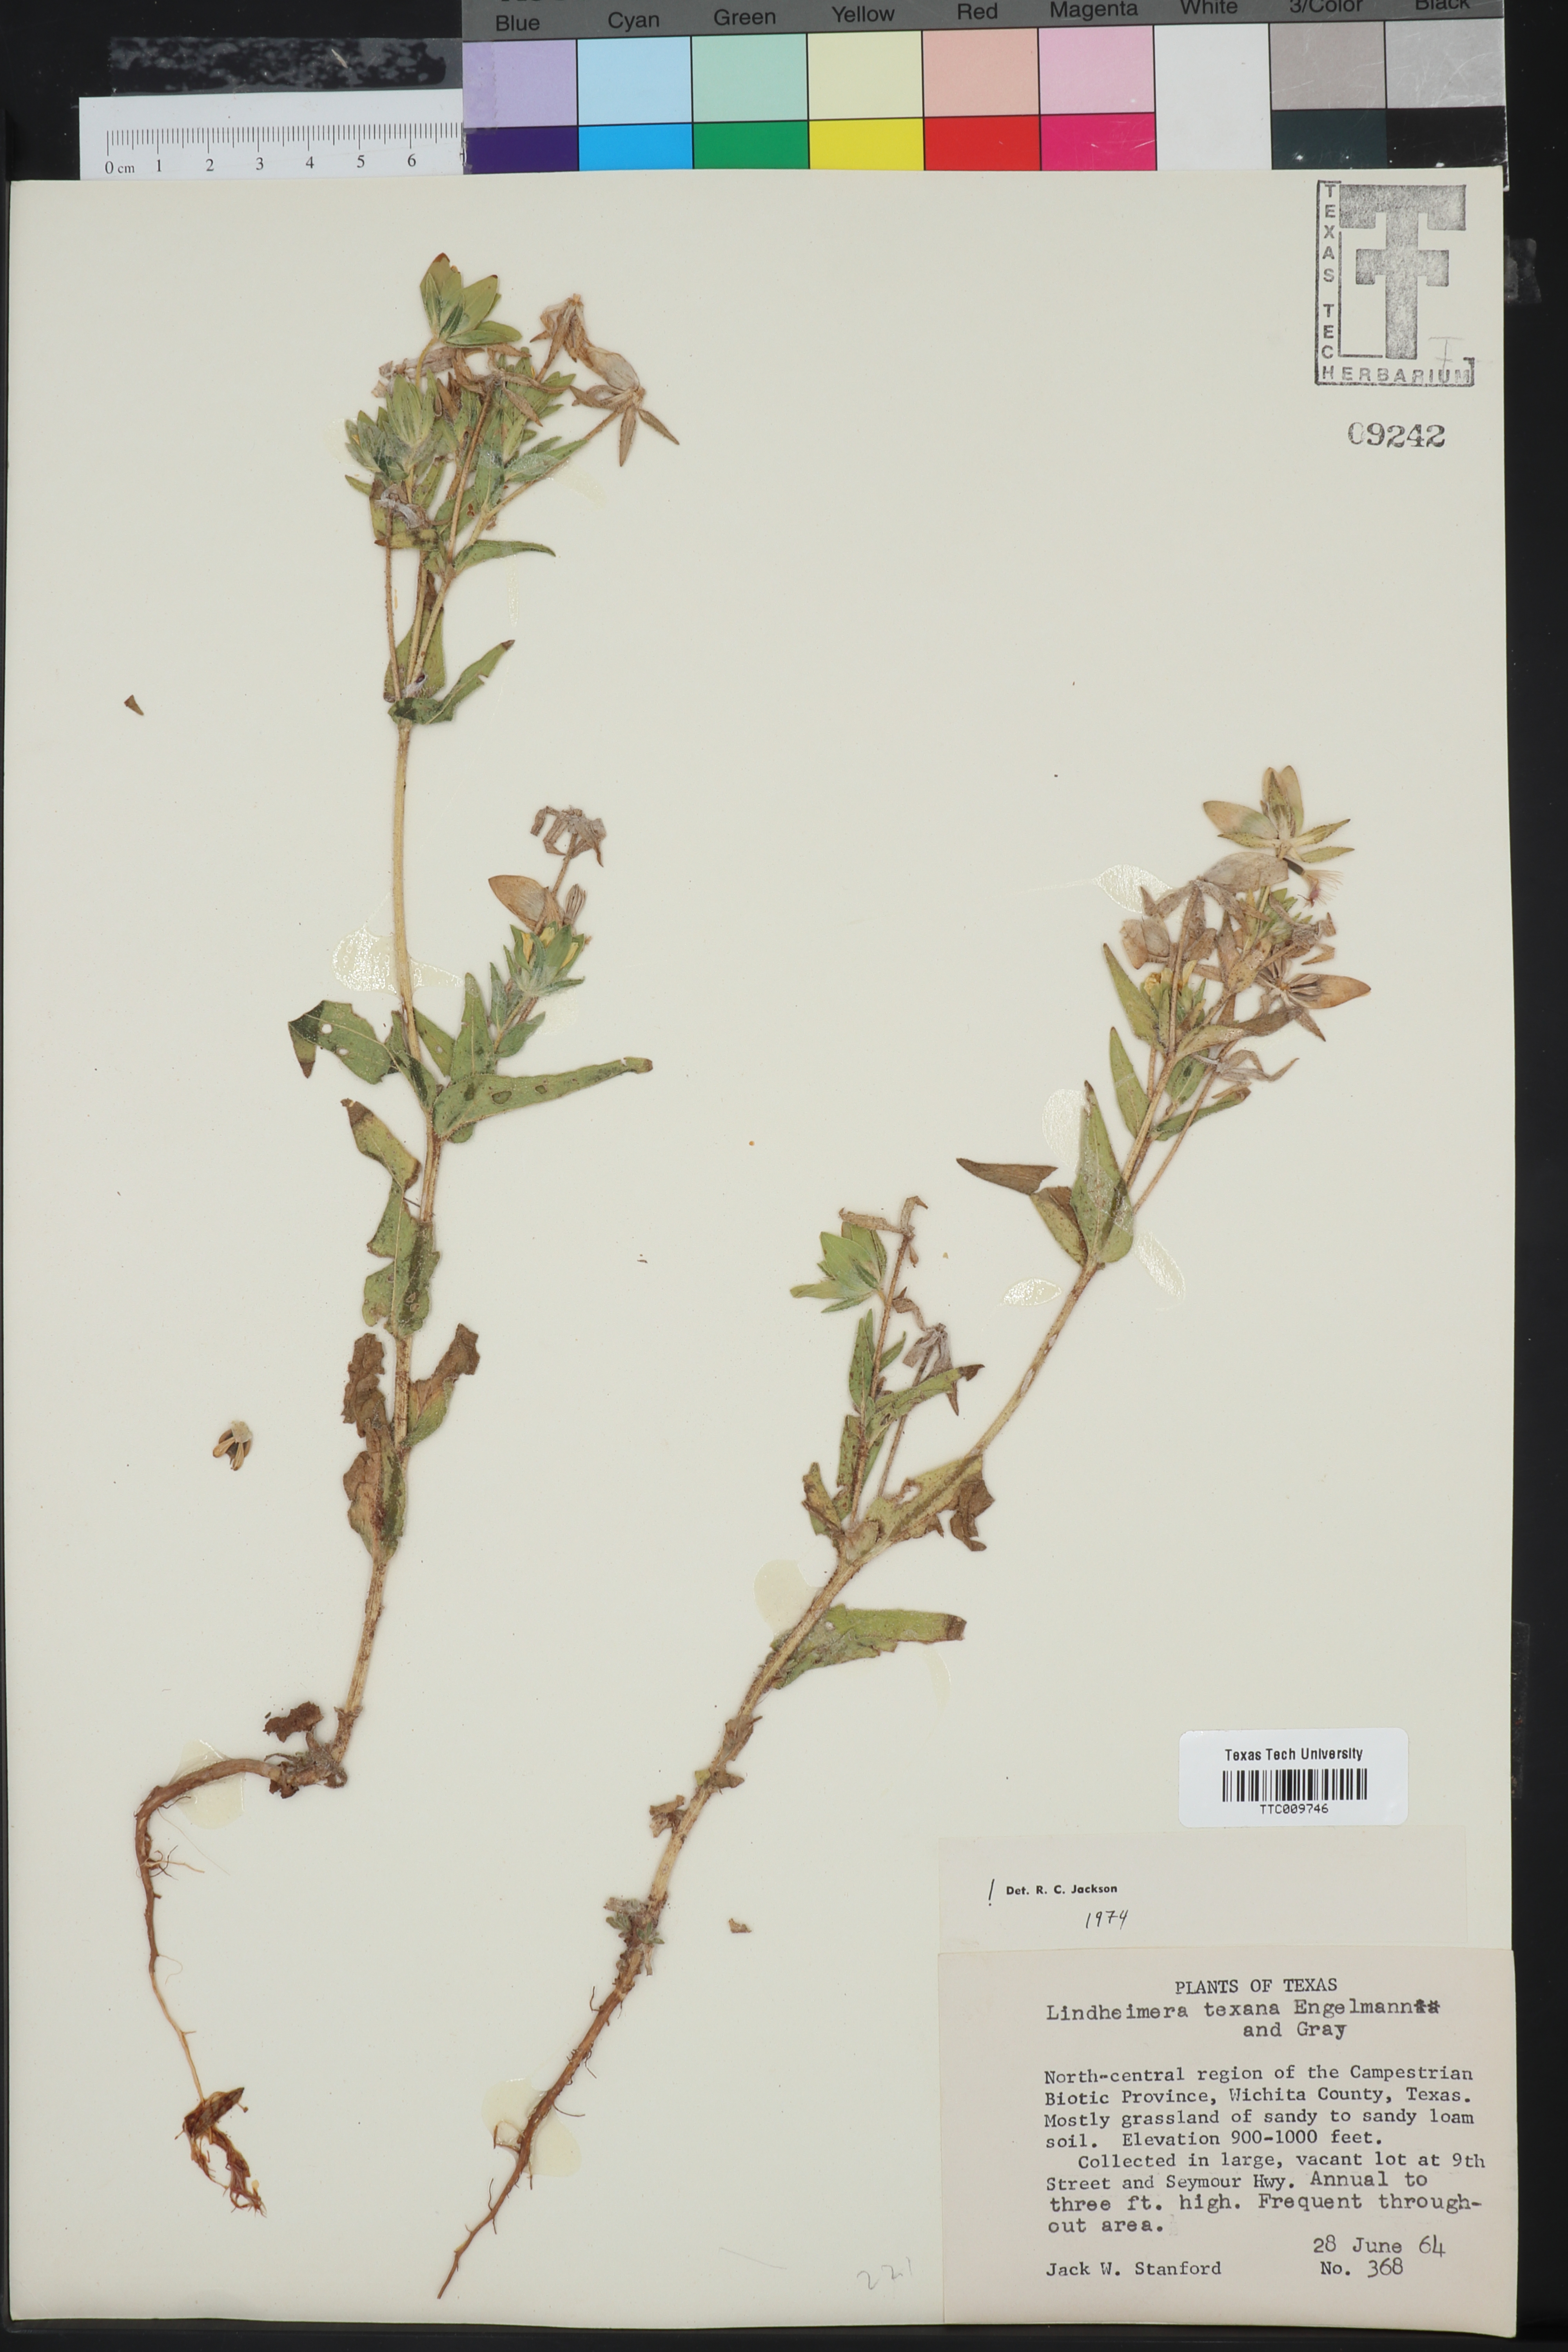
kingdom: Plantae
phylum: Tracheophyta
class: Magnoliopsida
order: Asterales
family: Asteraceae
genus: Lindheimera
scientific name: Lindheimera texana
